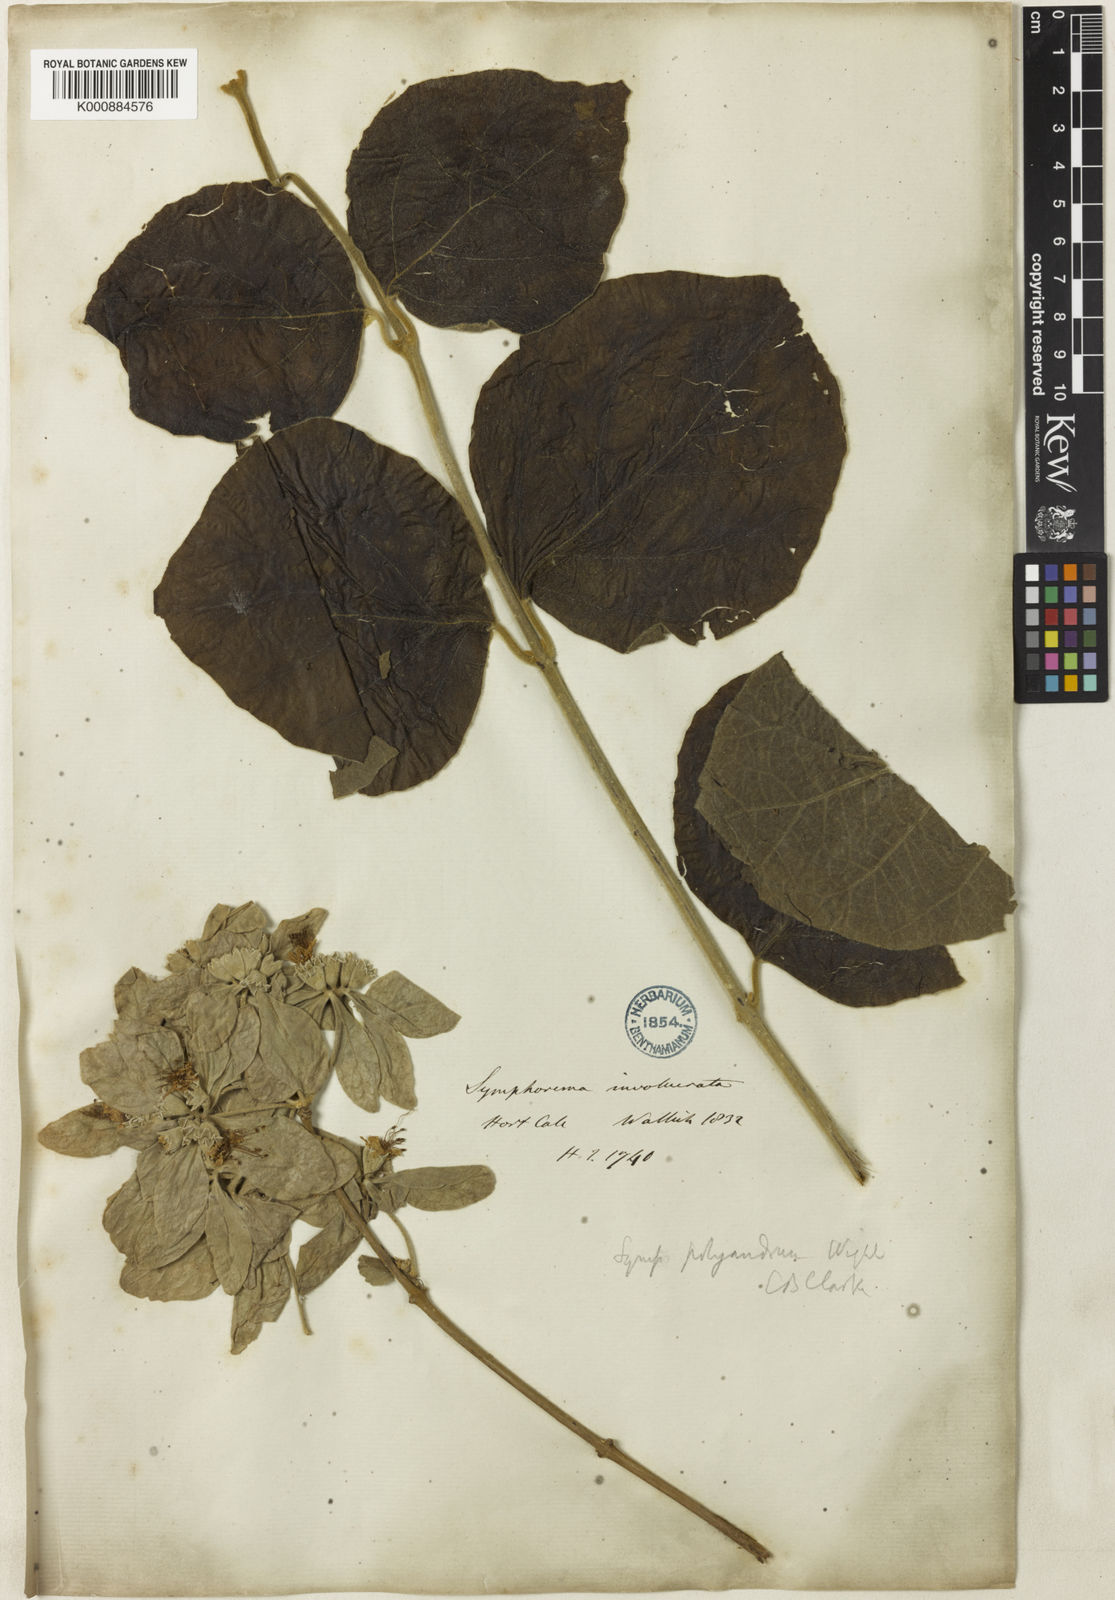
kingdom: Plantae
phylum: Tracheophyta
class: Magnoliopsida
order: Lamiales
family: Lamiaceae
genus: Symphorema
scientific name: Symphorema polyandrum
